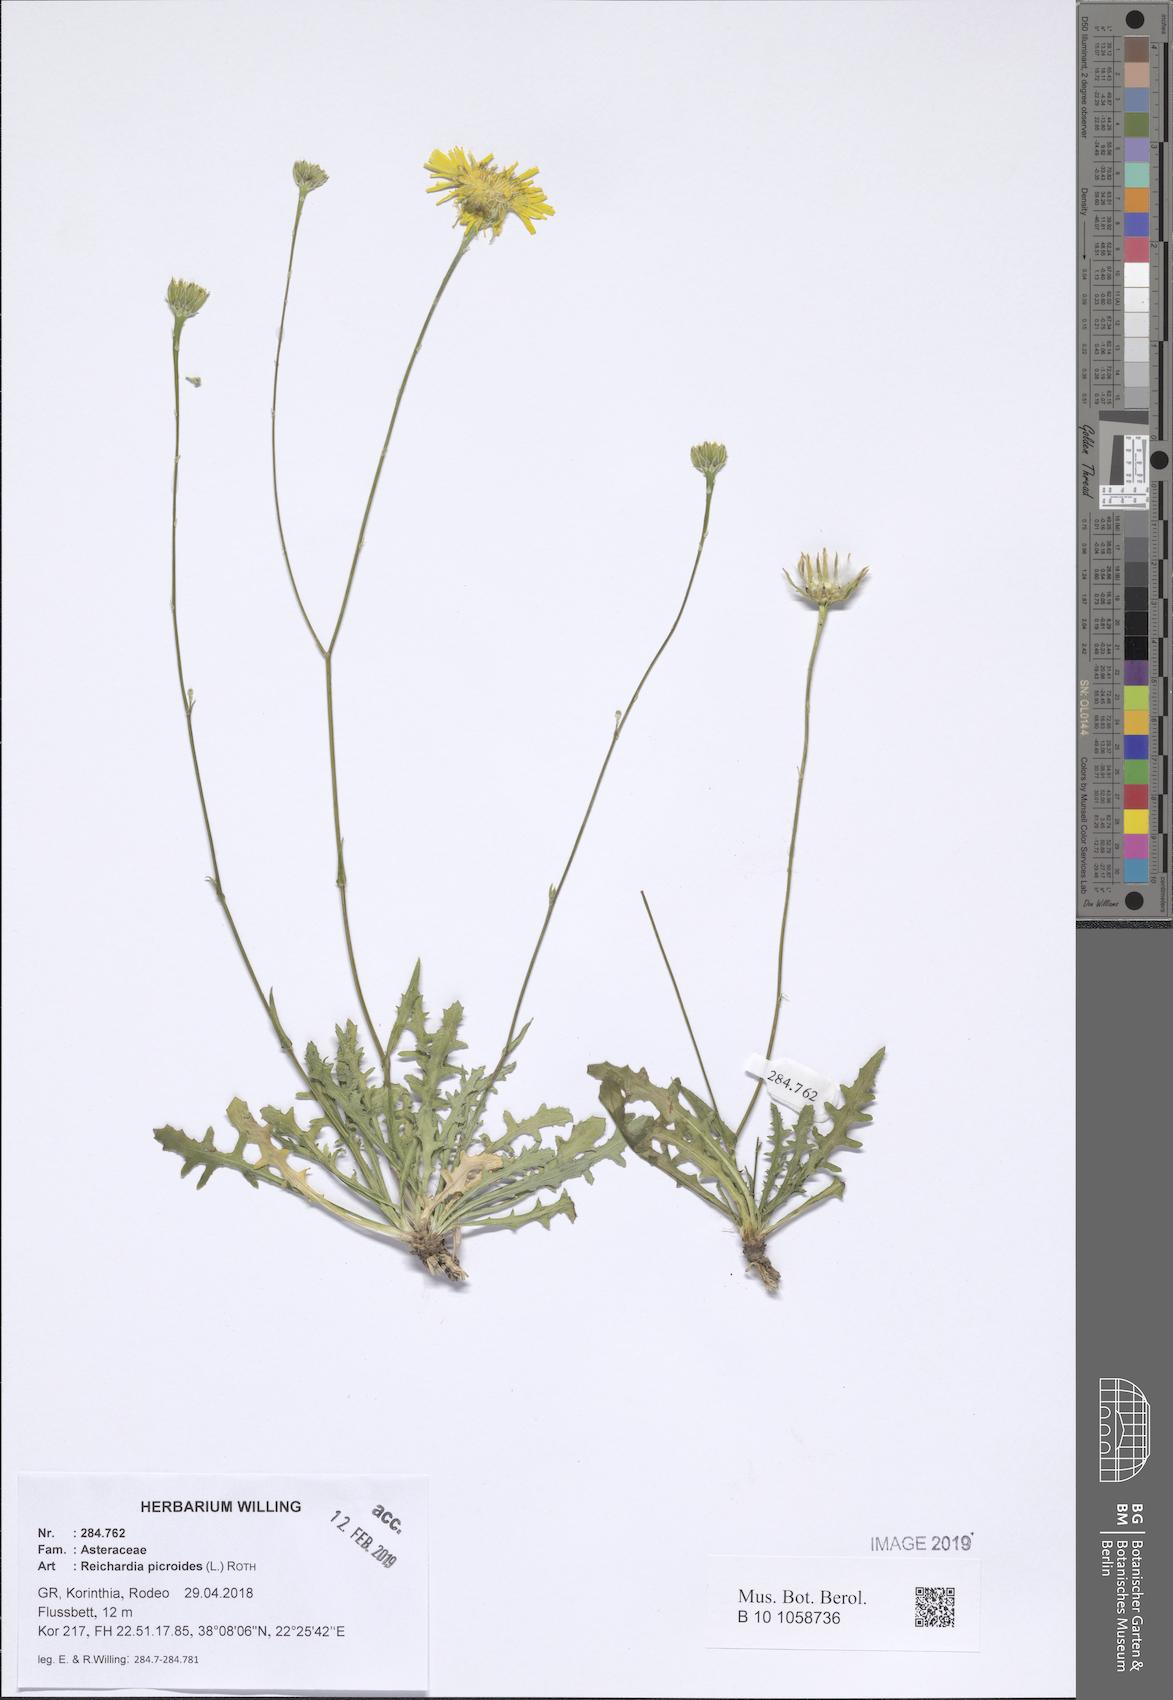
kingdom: Plantae
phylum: Tracheophyta
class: Magnoliopsida
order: Asterales
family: Asteraceae
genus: Reichardia
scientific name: Reichardia picroides
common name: Common brighteyes
